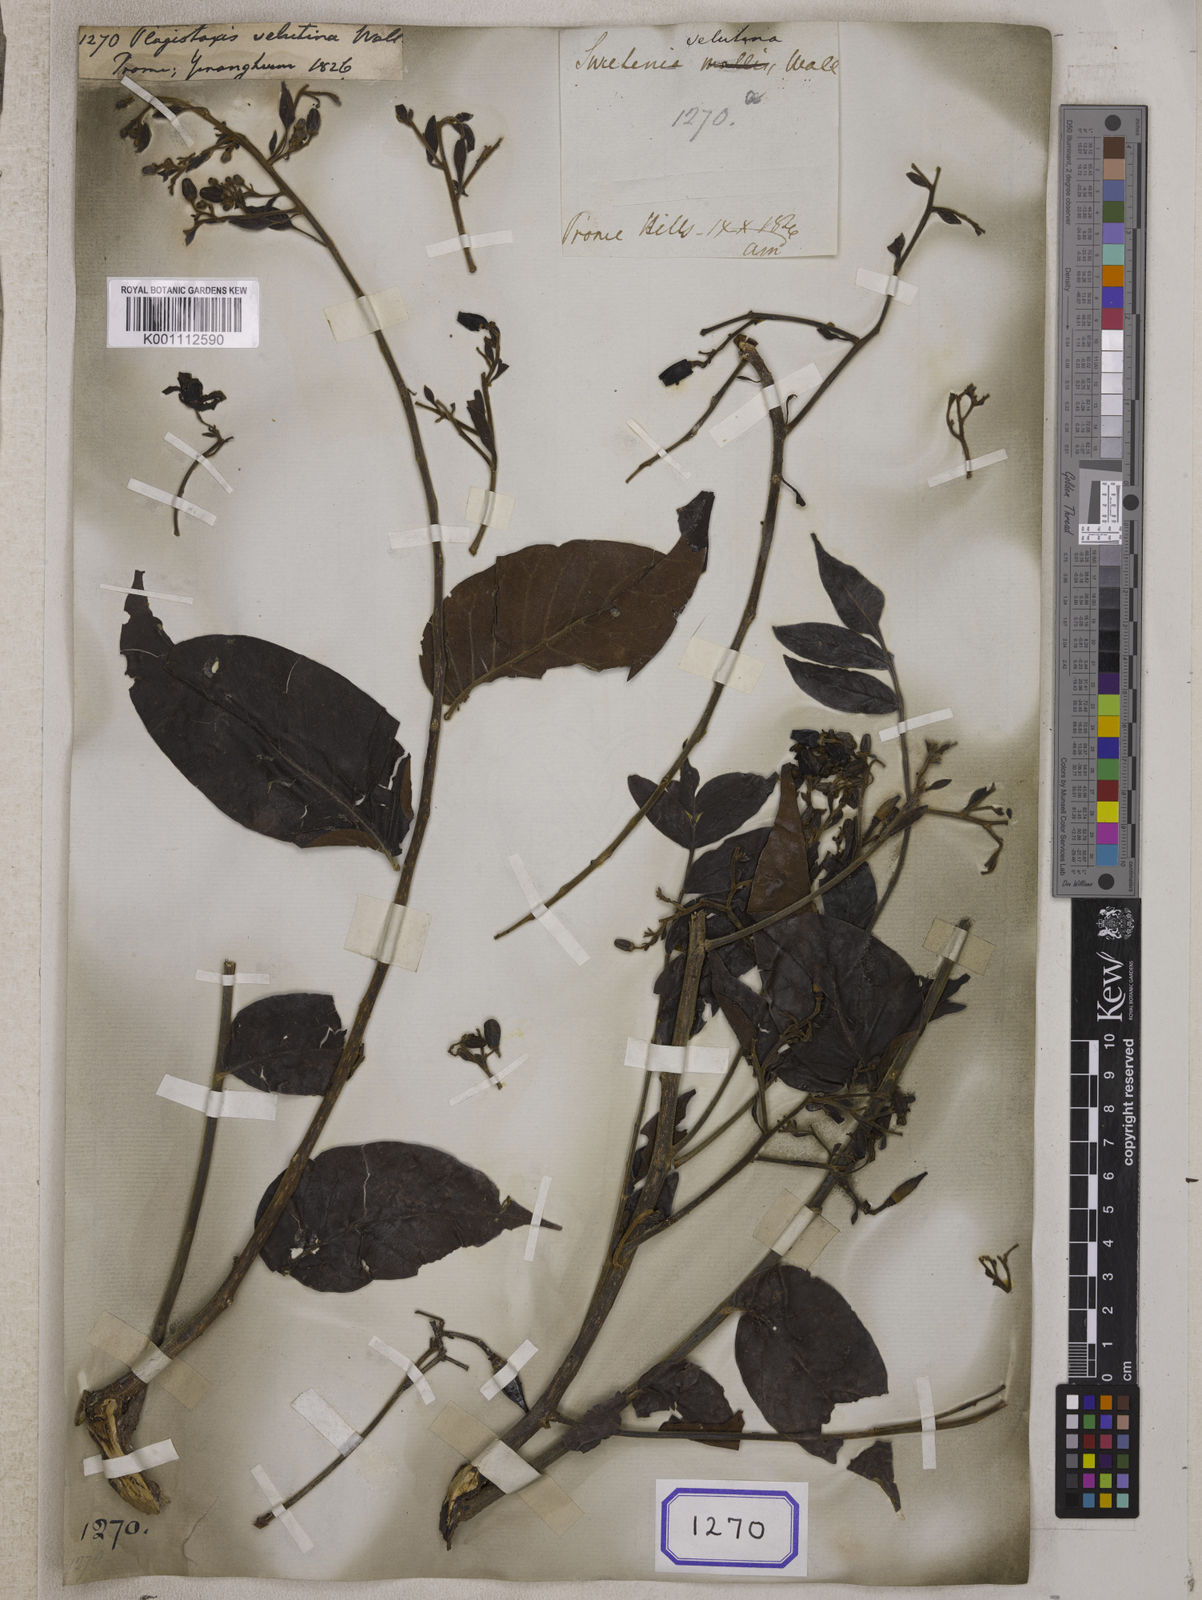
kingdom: Plantae
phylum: Tracheophyta
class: Magnoliopsida
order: Sapindales
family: Meliaceae
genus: Chukrasia
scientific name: Chukrasia tabularis
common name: Chittagong wood
